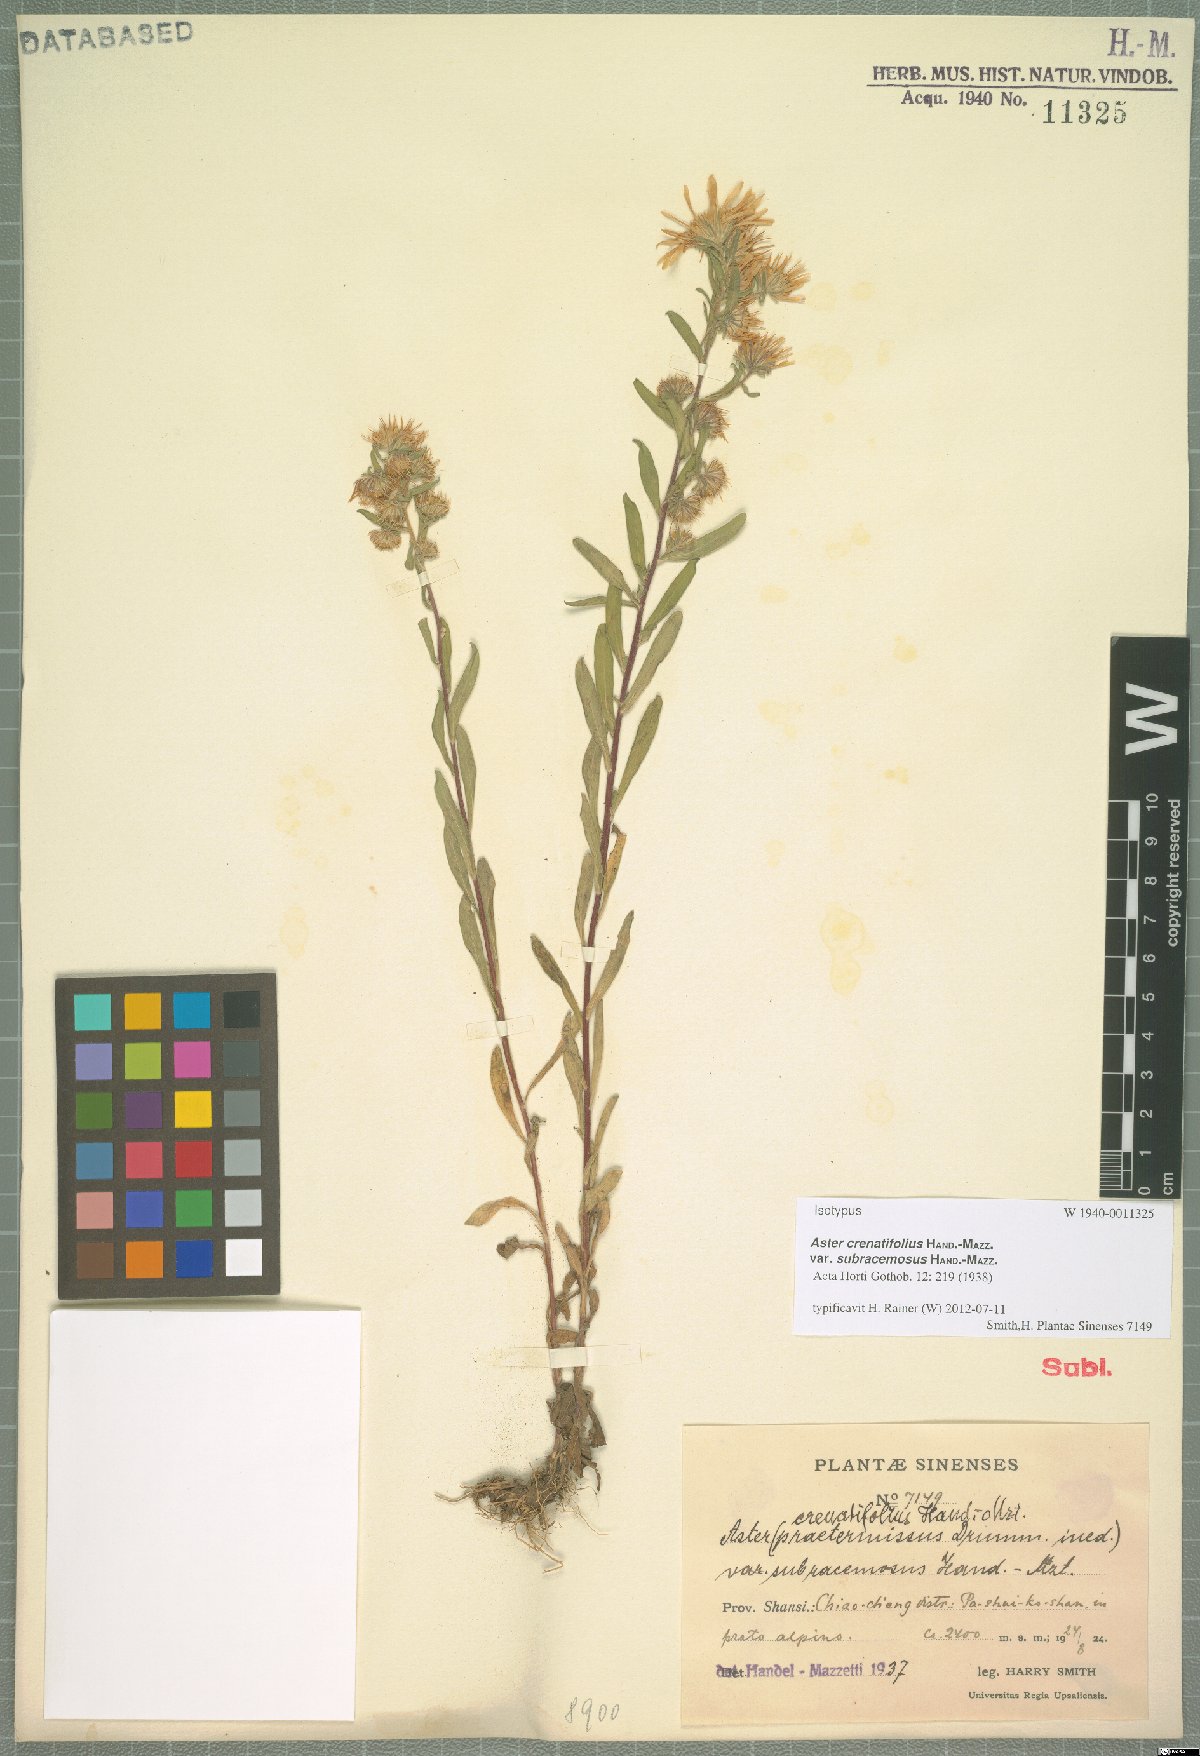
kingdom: Plantae
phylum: Tracheophyta
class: Magnoliopsida
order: Asterales
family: Asteraceae
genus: Heteropappus
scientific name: Heteropappus crenatifolius
